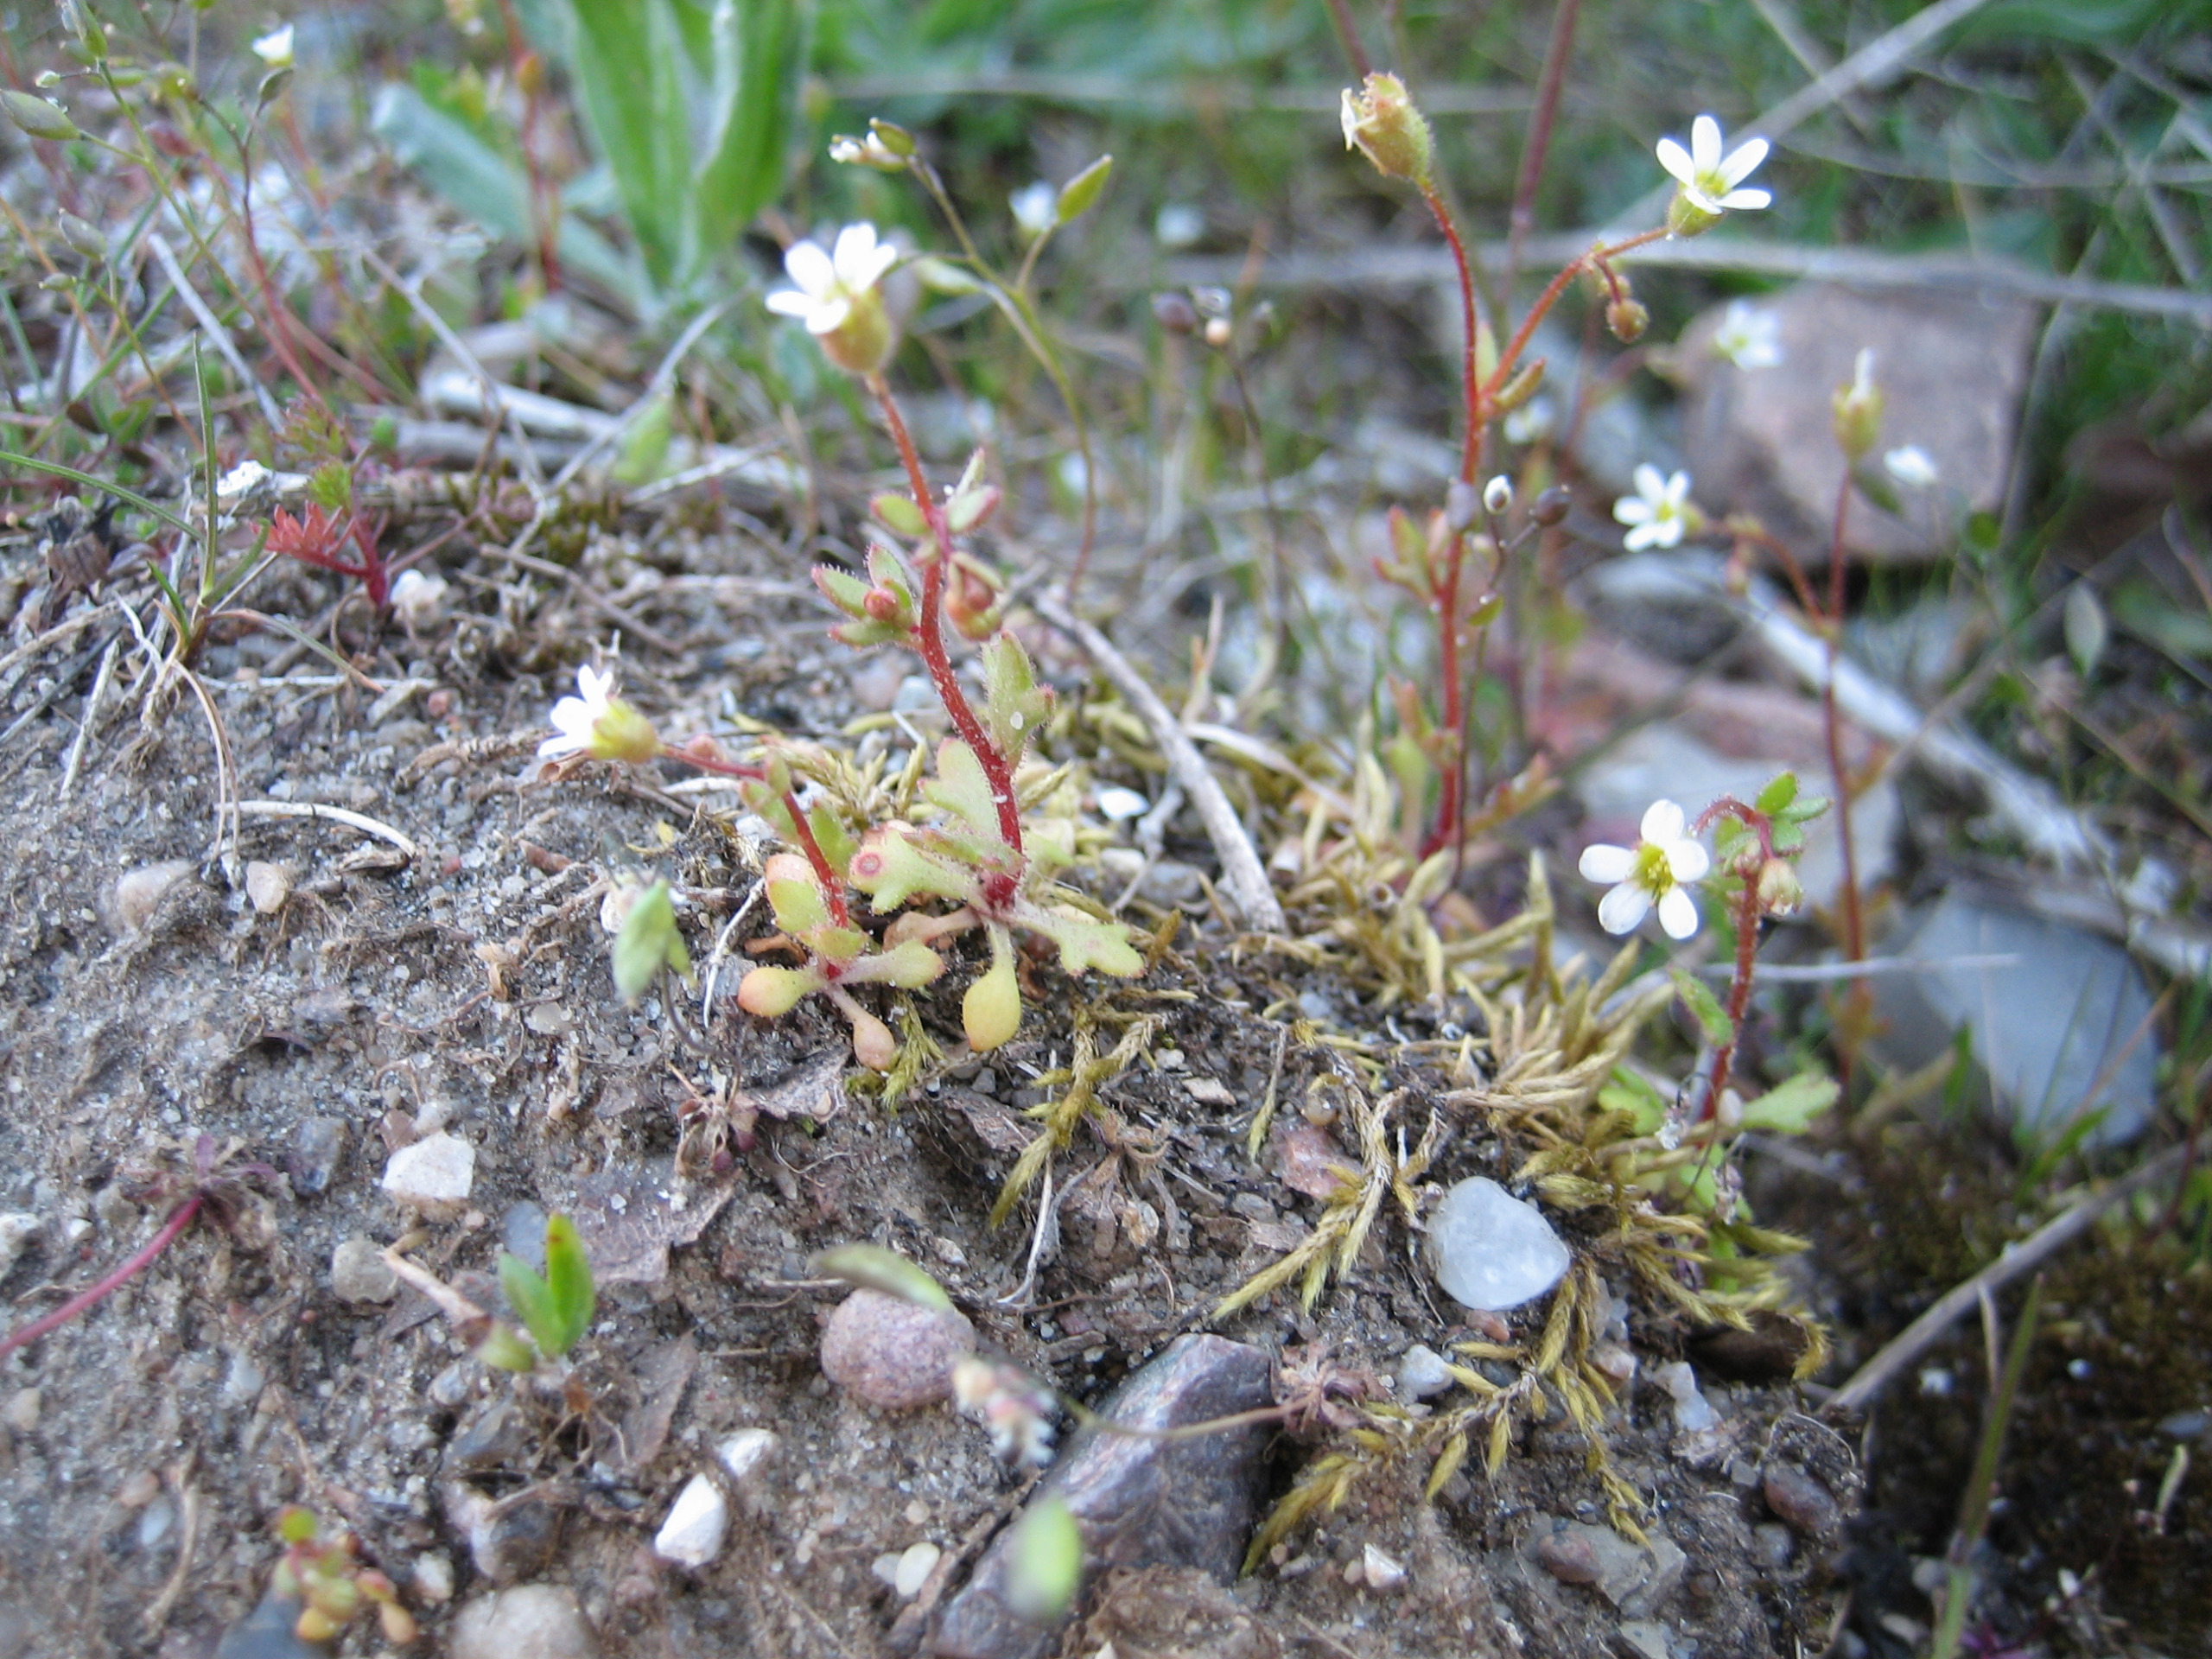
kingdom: Plantae
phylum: Tracheophyta
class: Magnoliopsida
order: Saxifragales
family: Saxifragaceae
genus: Saxifraga
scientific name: Saxifraga tridactylites
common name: Trekløft-stenbræk
